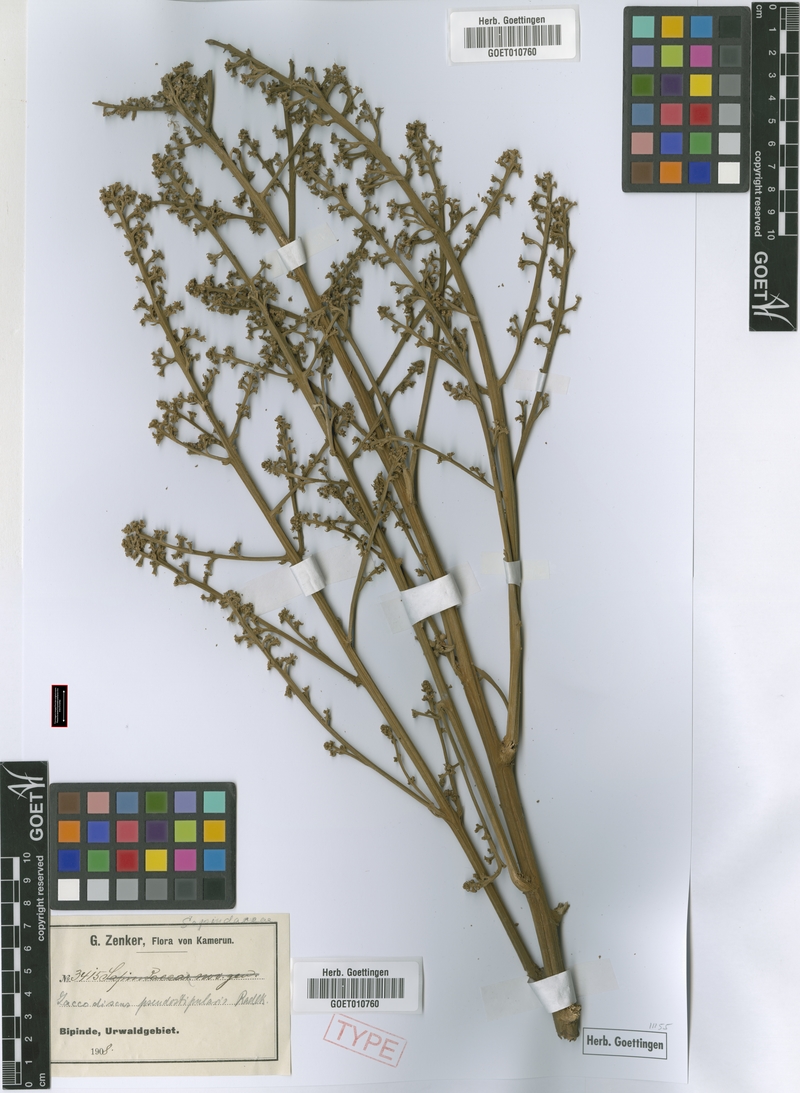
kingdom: Plantae
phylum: Tracheophyta
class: Magnoliopsida
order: Sapindales
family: Sapindaceae
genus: Laccodiscus
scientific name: Laccodiscus pseudostipularis
